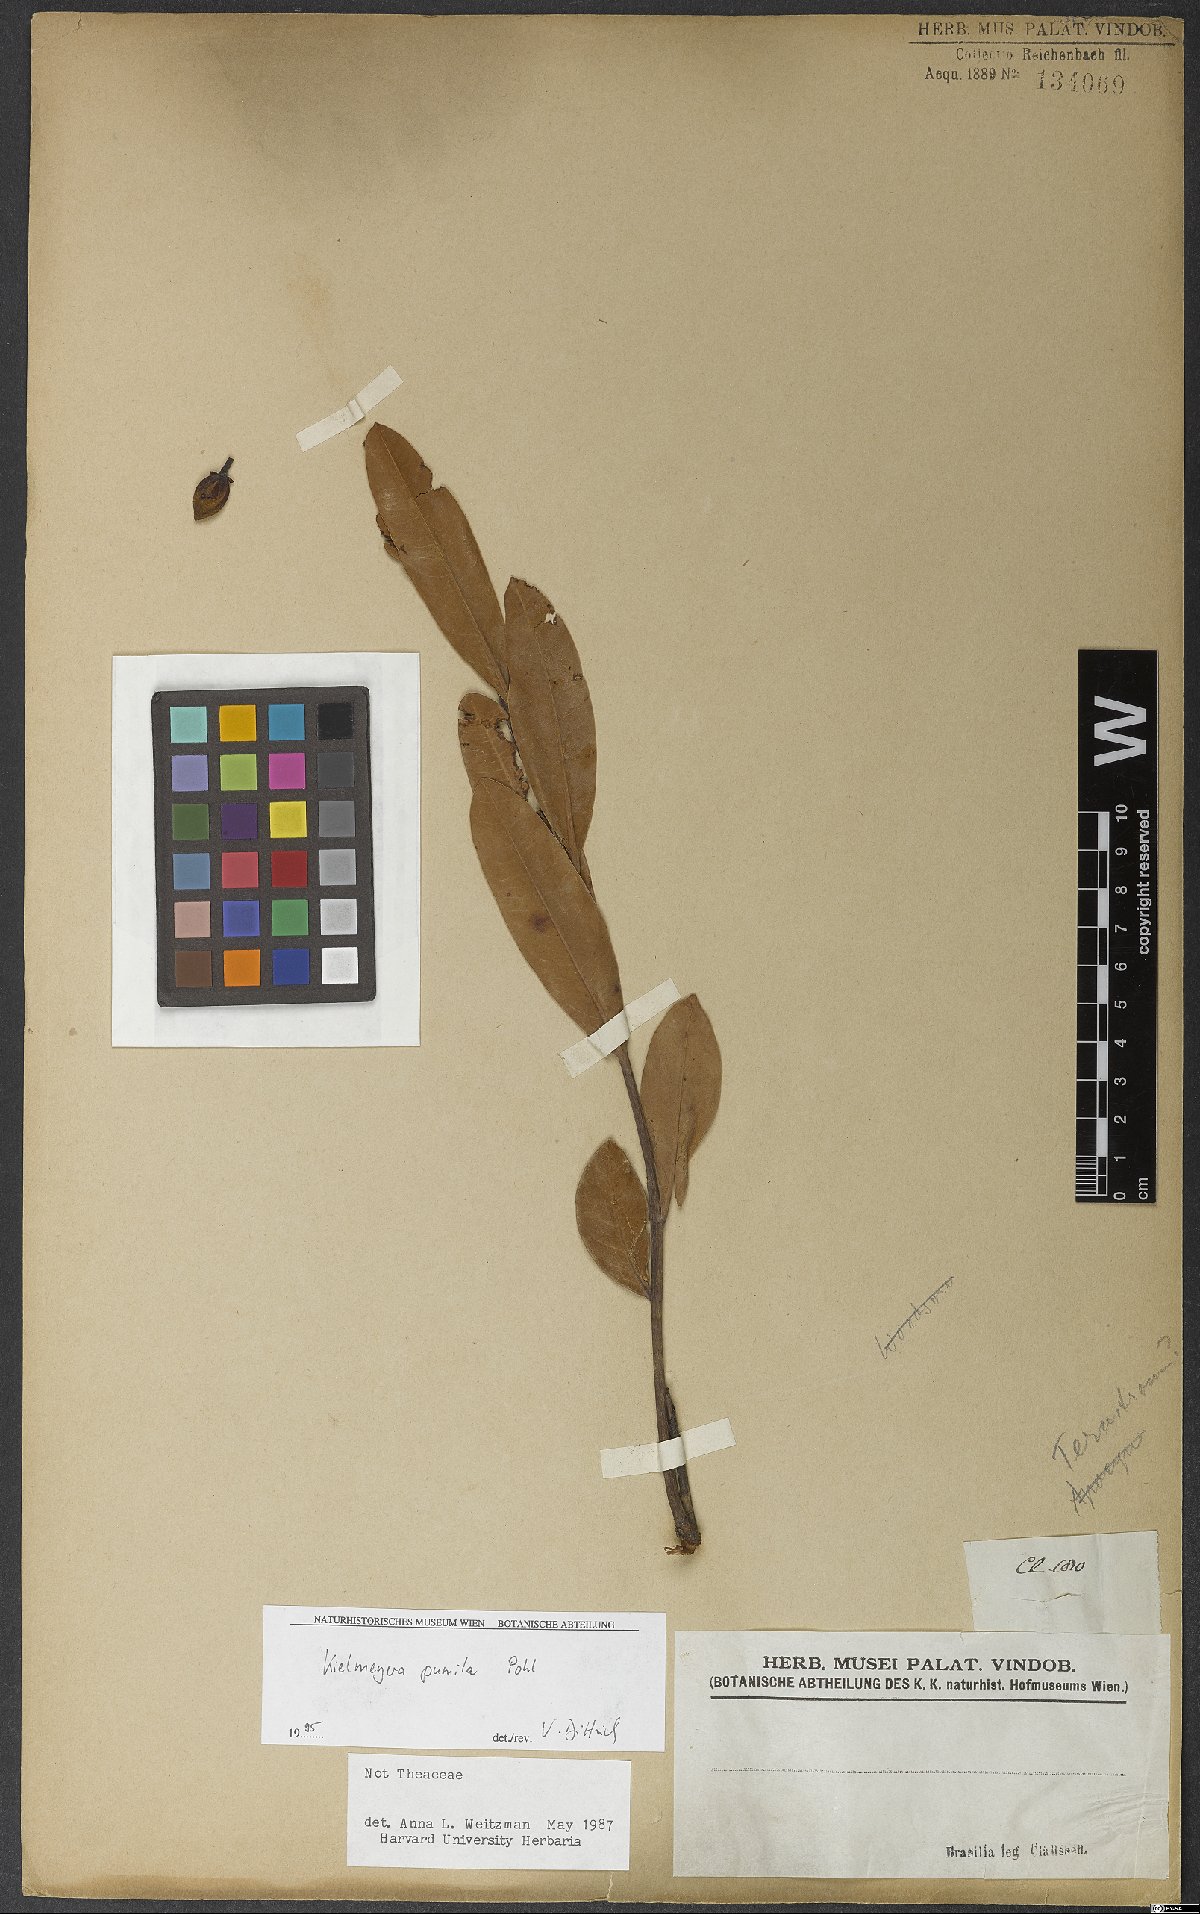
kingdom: Plantae
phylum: Tracheophyta
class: Magnoliopsida
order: Malpighiales
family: Calophyllaceae
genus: Kielmeyera
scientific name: Kielmeyera pumila
